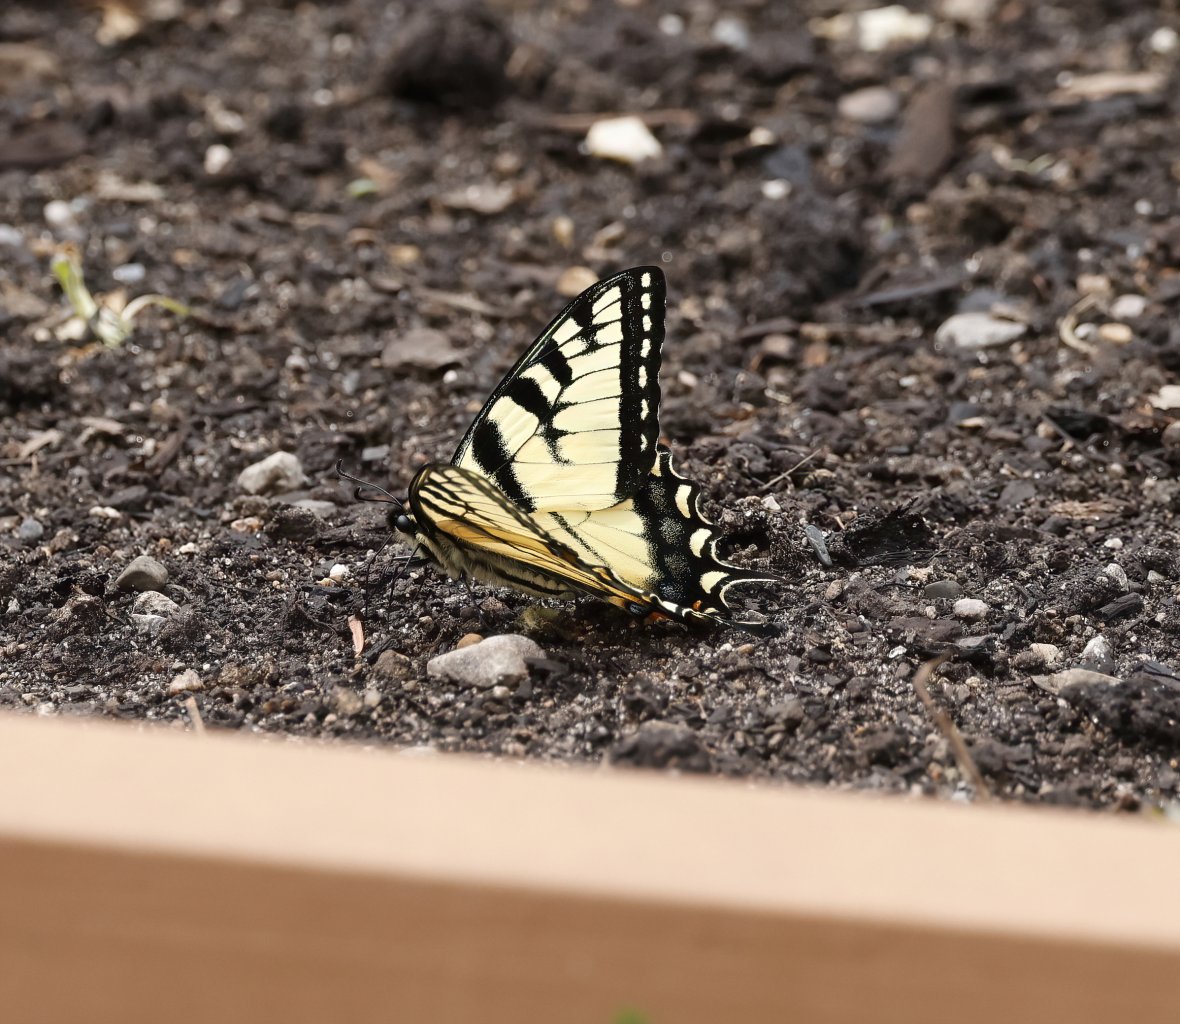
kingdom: Animalia
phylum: Arthropoda
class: Insecta
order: Lepidoptera
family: Papilionidae
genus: Pterourus
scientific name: Pterourus glaucus
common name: Eastern Tiger Swallowtail
